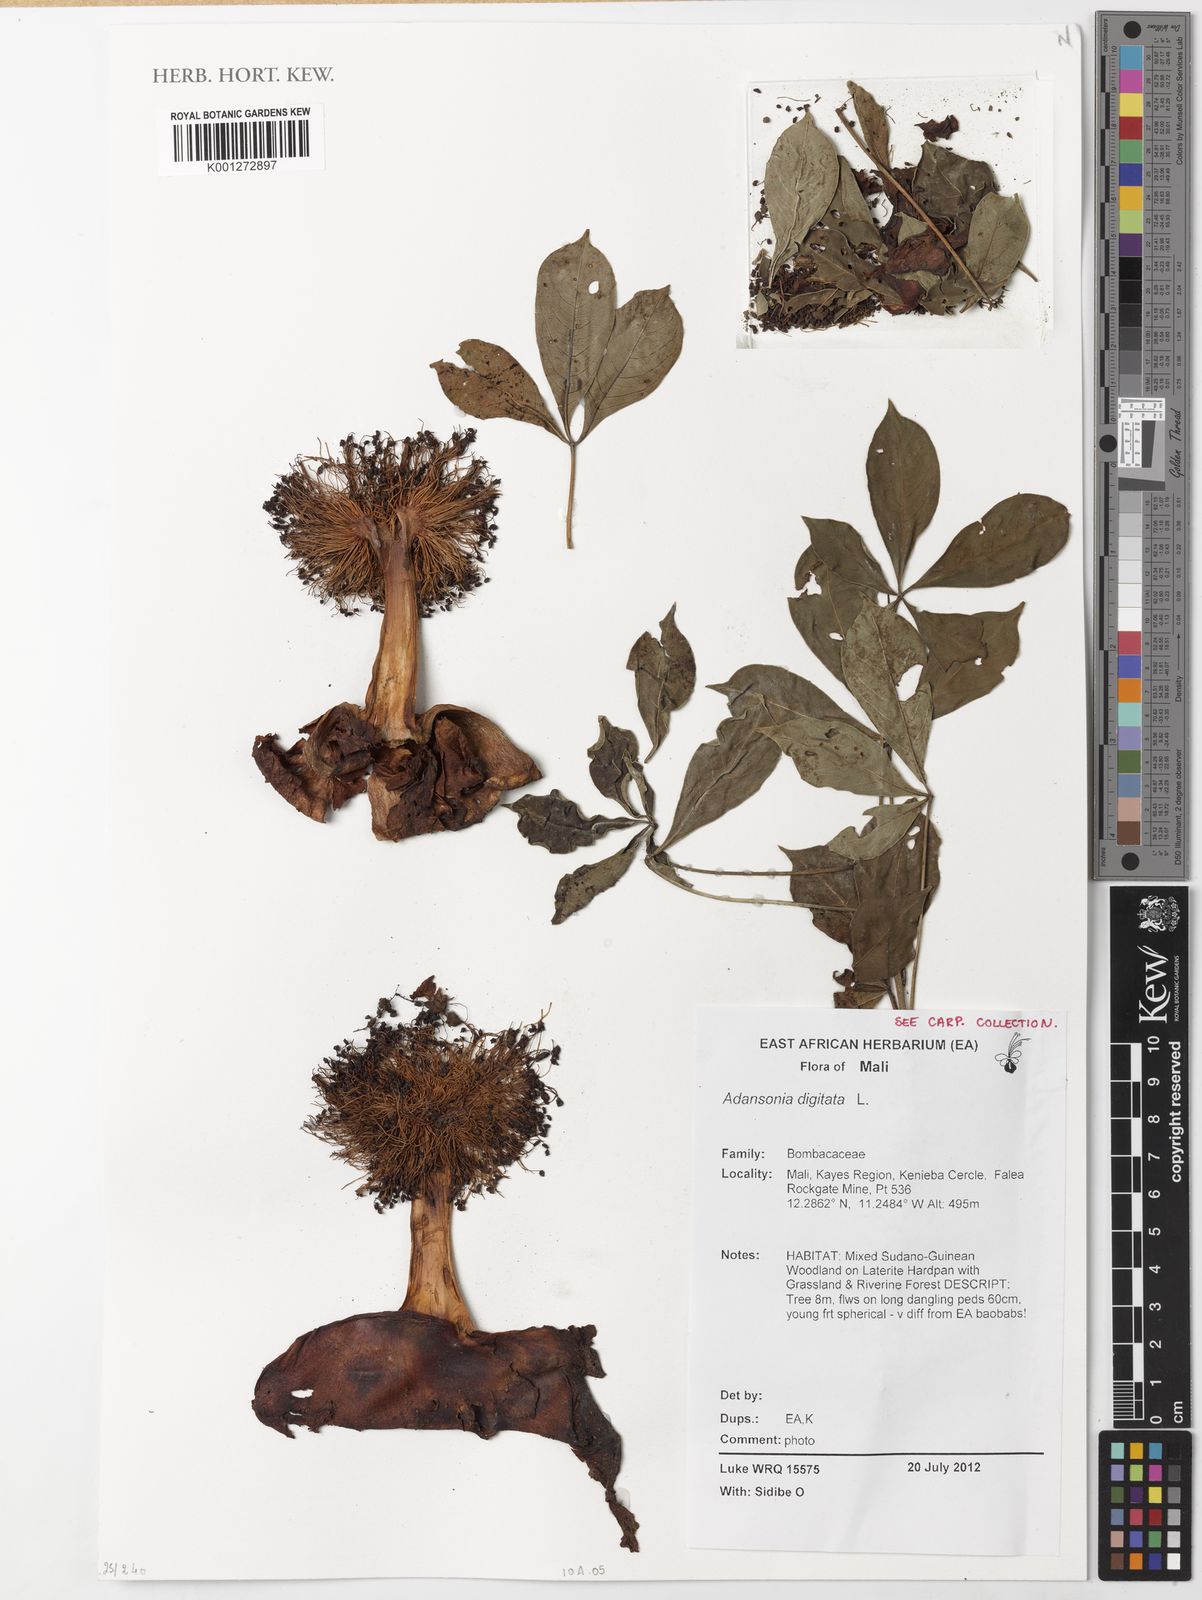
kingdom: Plantae
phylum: Tracheophyta
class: Magnoliopsida
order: Malvales
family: Malvaceae
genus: Adansonia
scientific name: Adansonia digitata
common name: Dead-rat-tree
